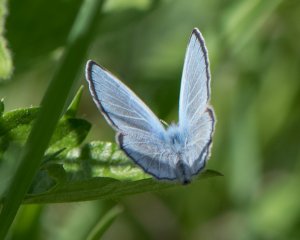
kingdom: Animalia
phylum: Arthropoda
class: Insecta
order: Lepidoptera
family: Lycaenidae
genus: Glaucopsyche
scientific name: Glaucopsyche lygdamus
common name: Silvery Blue
